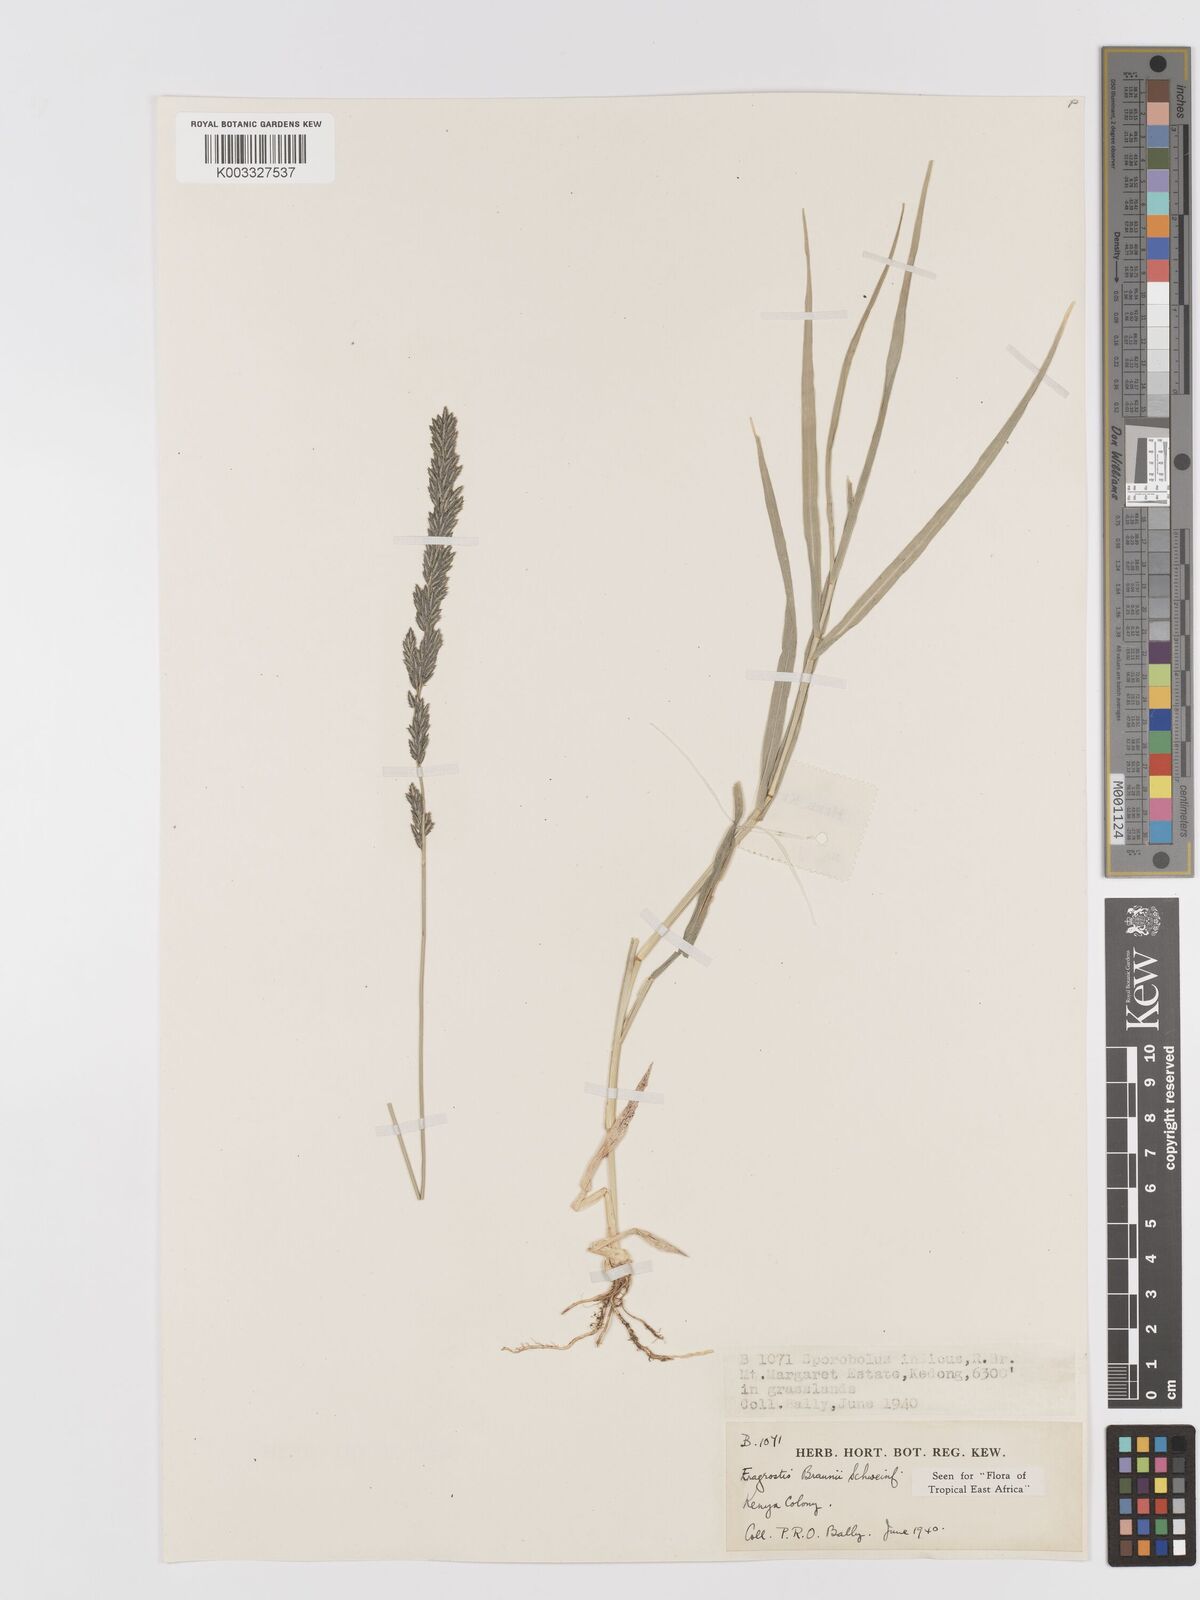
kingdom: Plantae
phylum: Tracheophyta
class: Liliopsida
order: Poales
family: Poaceae
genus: Eragrostis
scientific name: Eragrostis braunii
